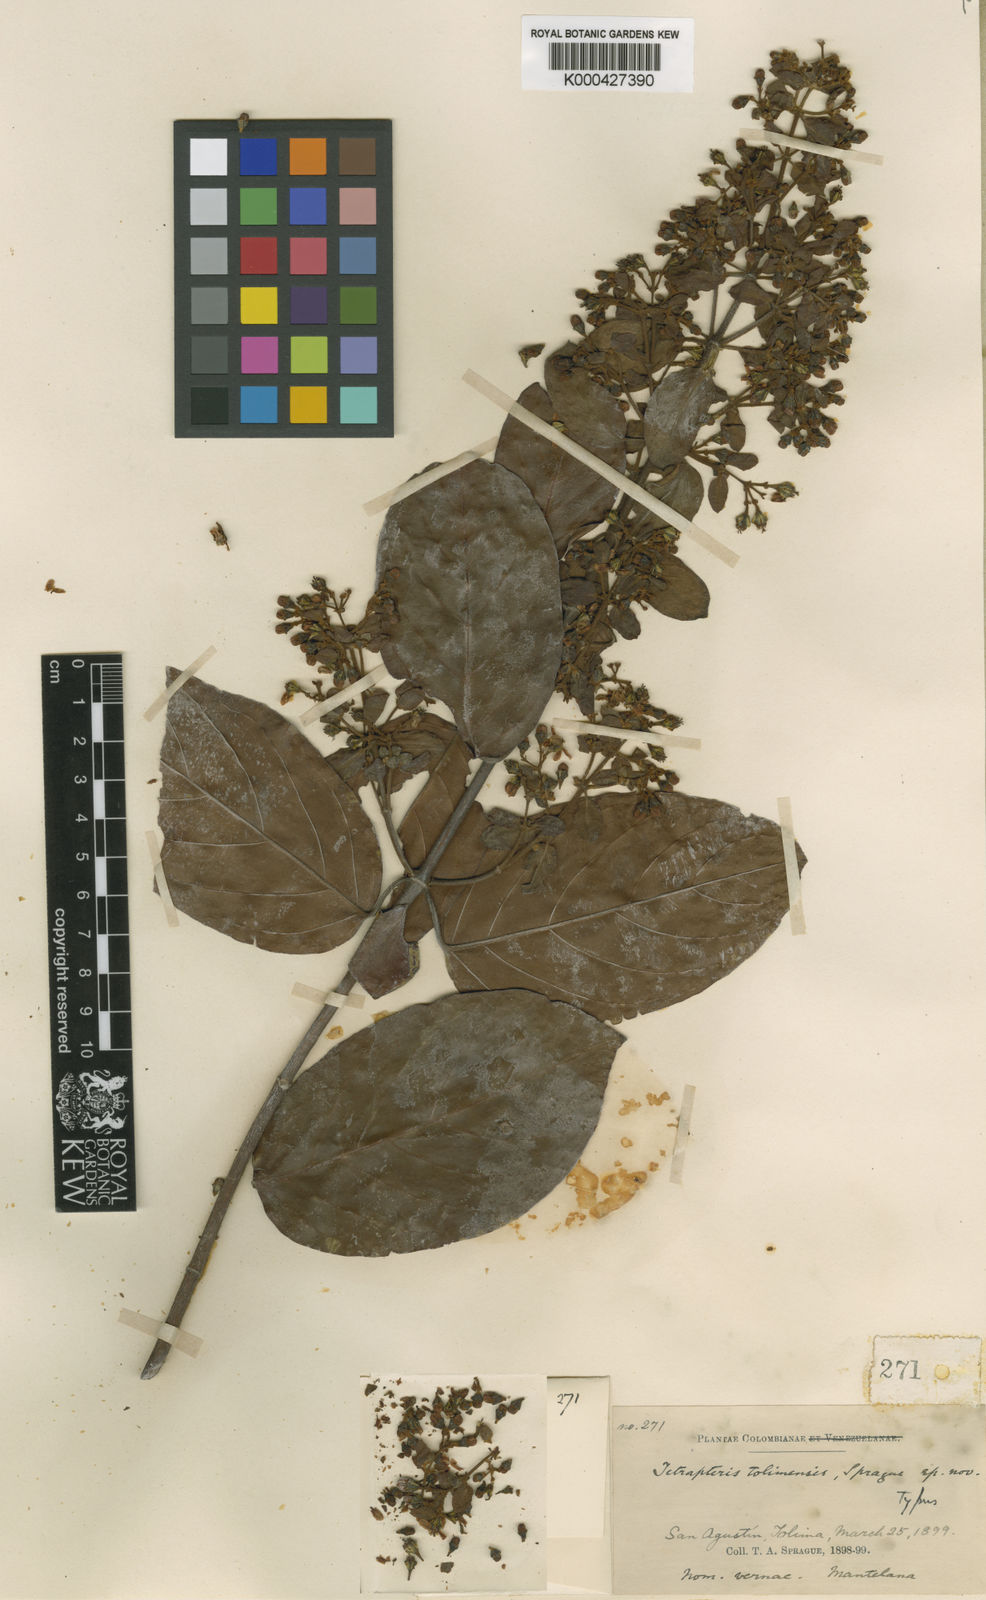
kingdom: Plantae
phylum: Tracheophyta
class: Magnoliopsida
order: Malpighiales
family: Malpighiaceae
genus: Tetrapterys
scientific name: Tetrapterys tolimensis
